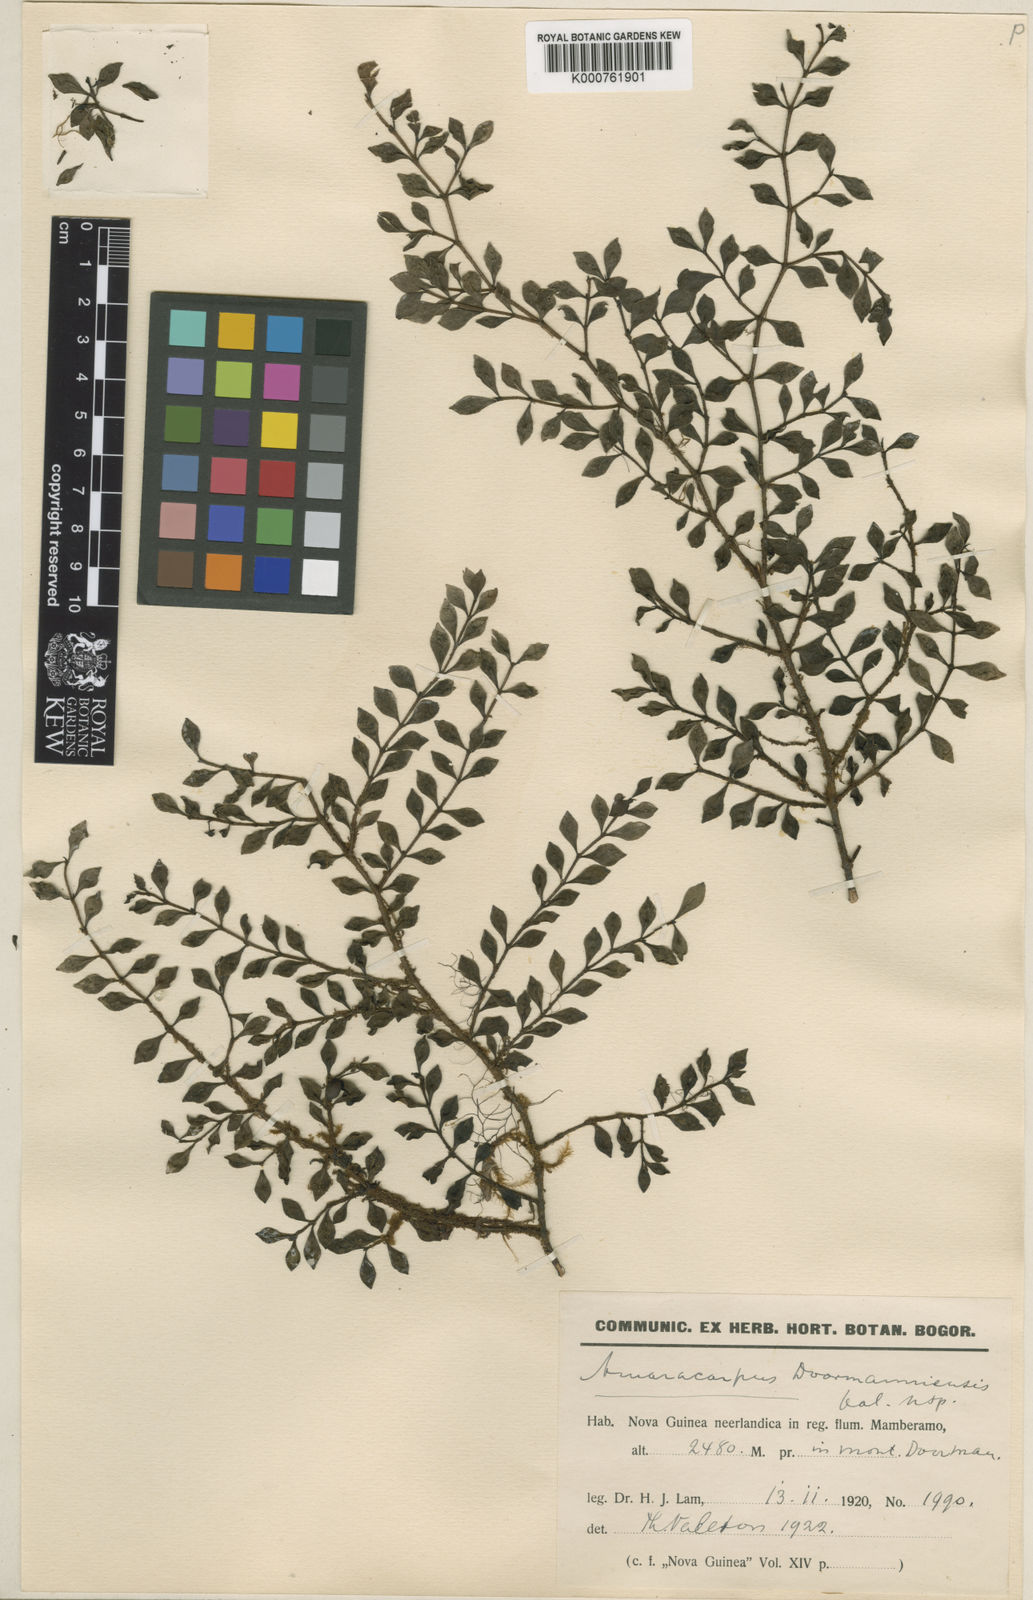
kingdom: Plantae
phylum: Tracheophyta
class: Magnoliopsida
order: Gentianales
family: Rubiaceae
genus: Amaracarpus
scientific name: Amaracarpus doormanniensis
